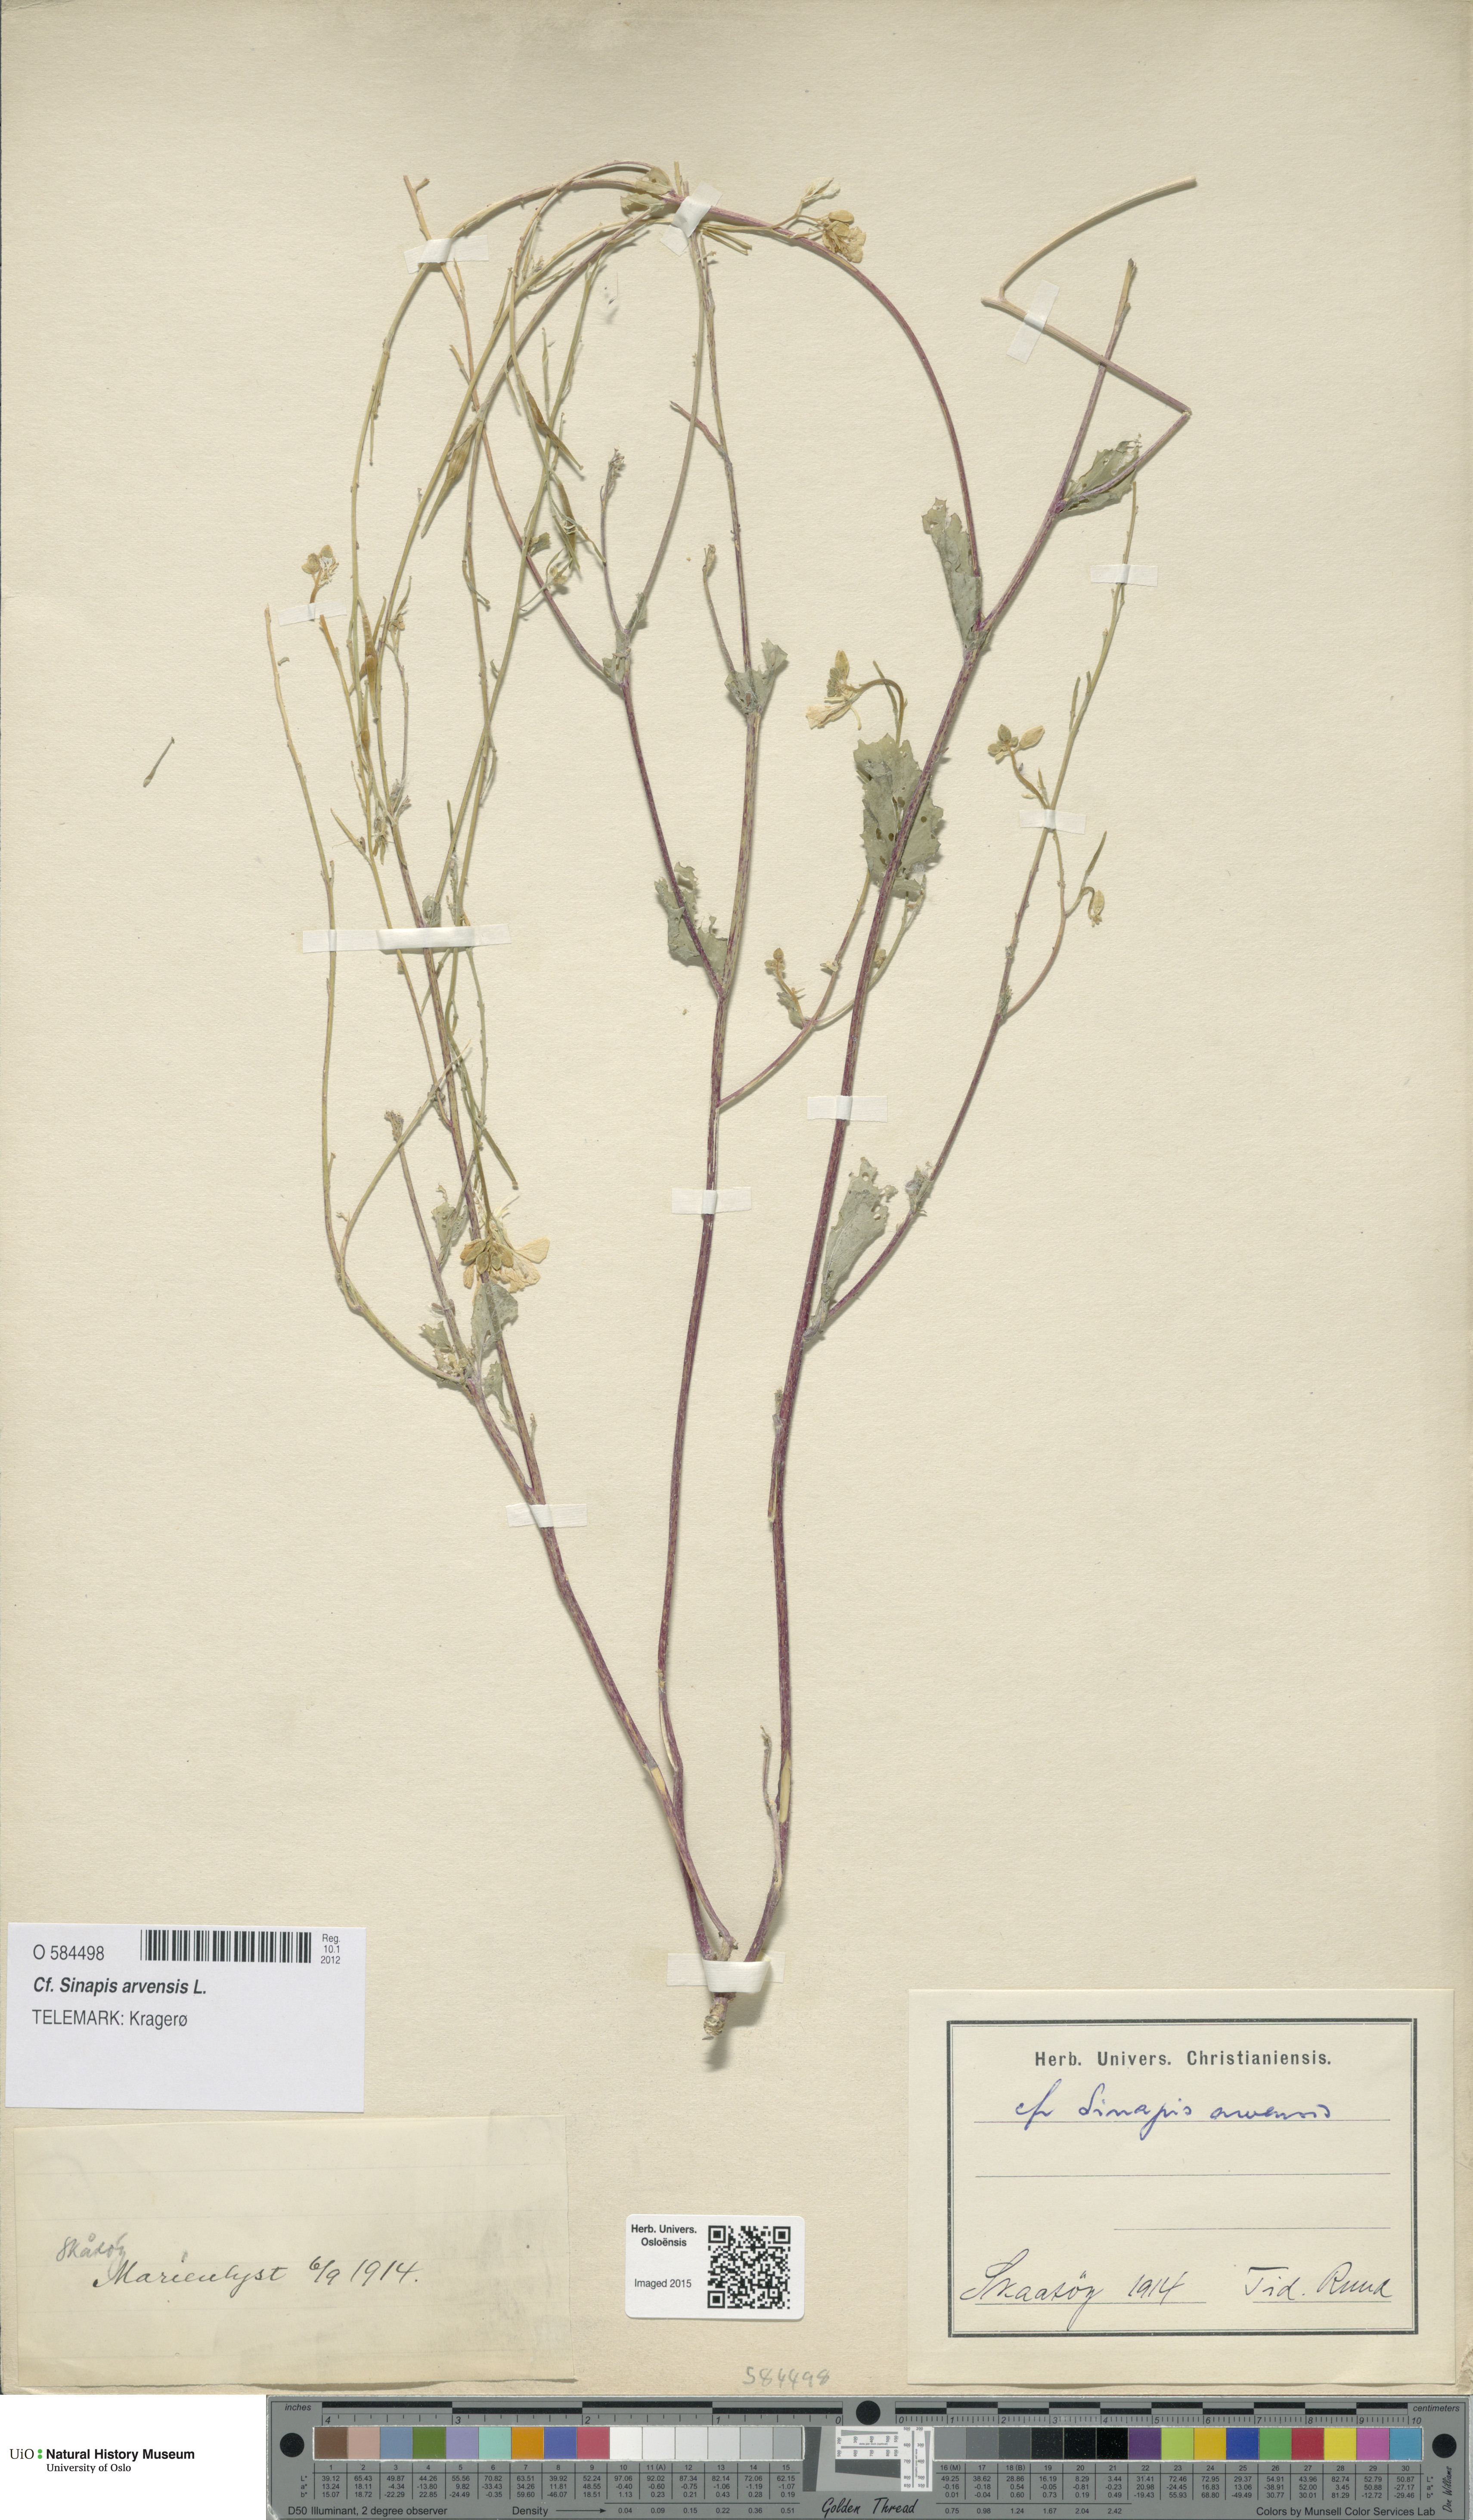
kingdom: Plantae
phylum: Tracheophyta
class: Magnoliopsida
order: Brassicales
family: Brassicaceae
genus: Sinapis
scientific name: Sinapis arvensis
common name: Charlock
